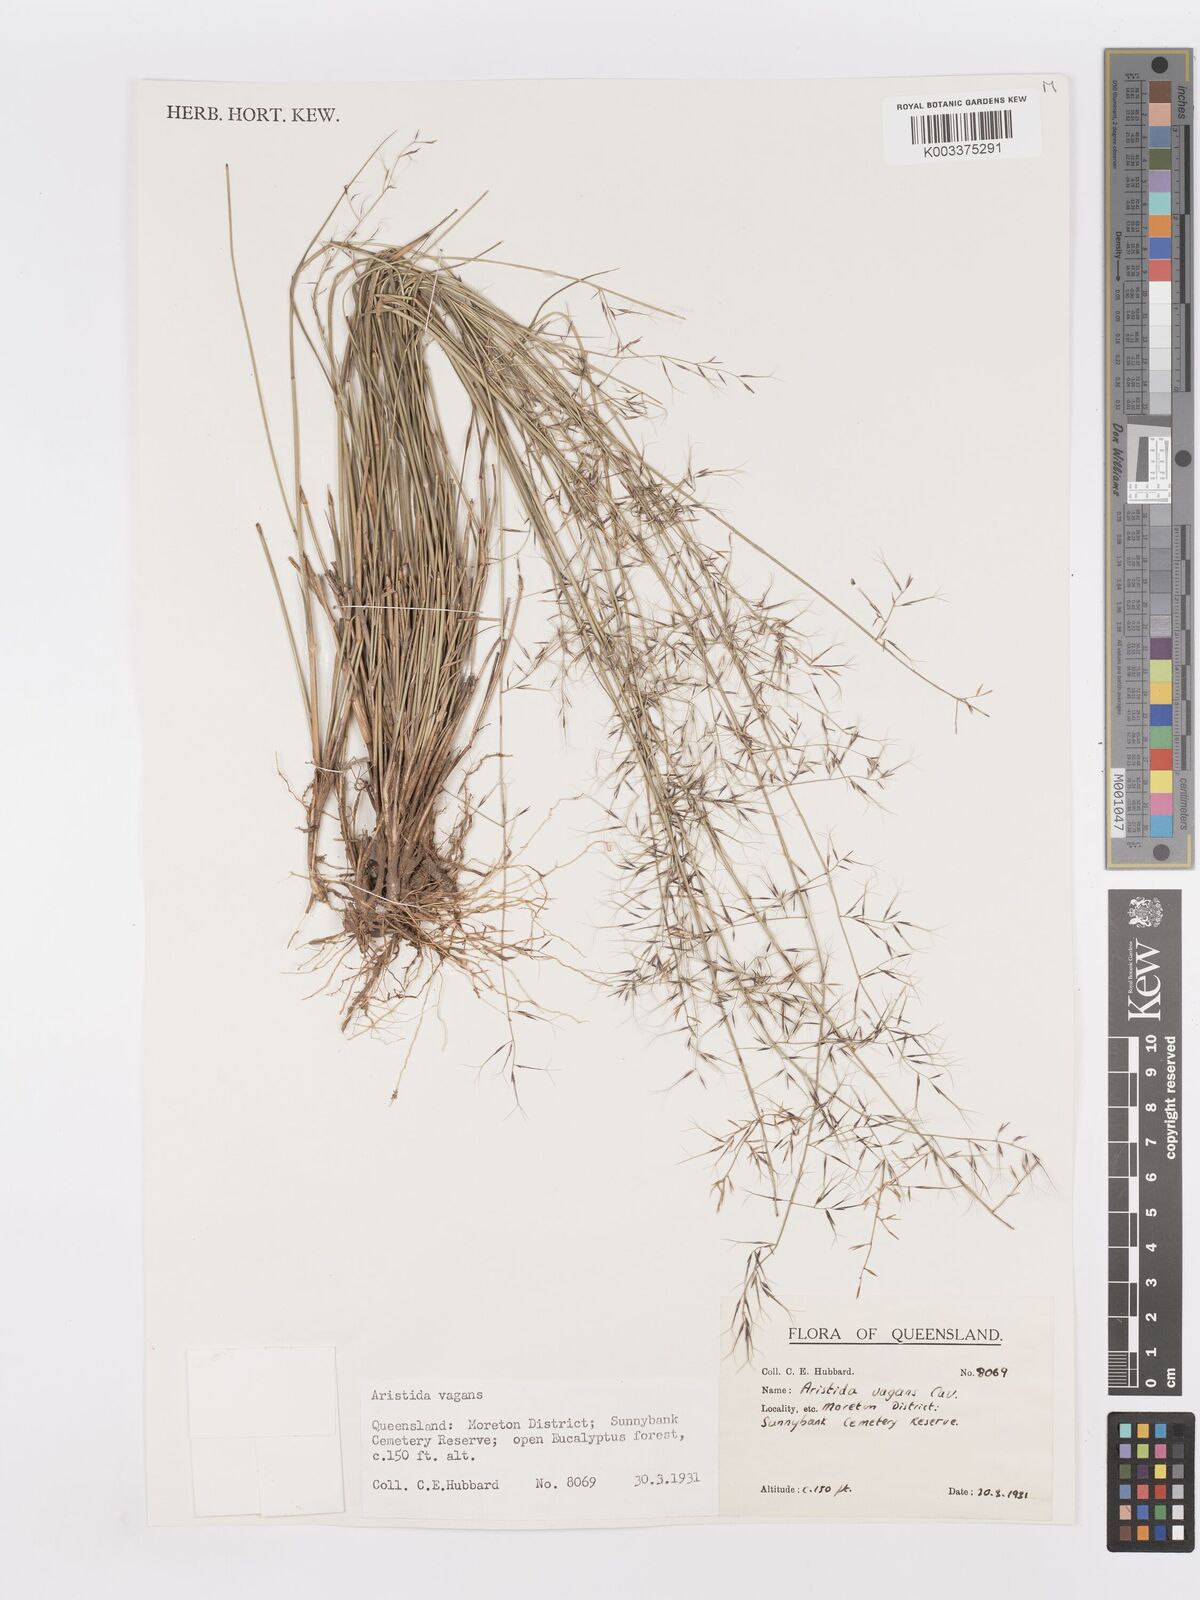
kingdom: Plantae
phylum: Tracheophyta
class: Liliopsida
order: Poales
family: Poaceae
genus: Aristida
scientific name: Aristida vagans
